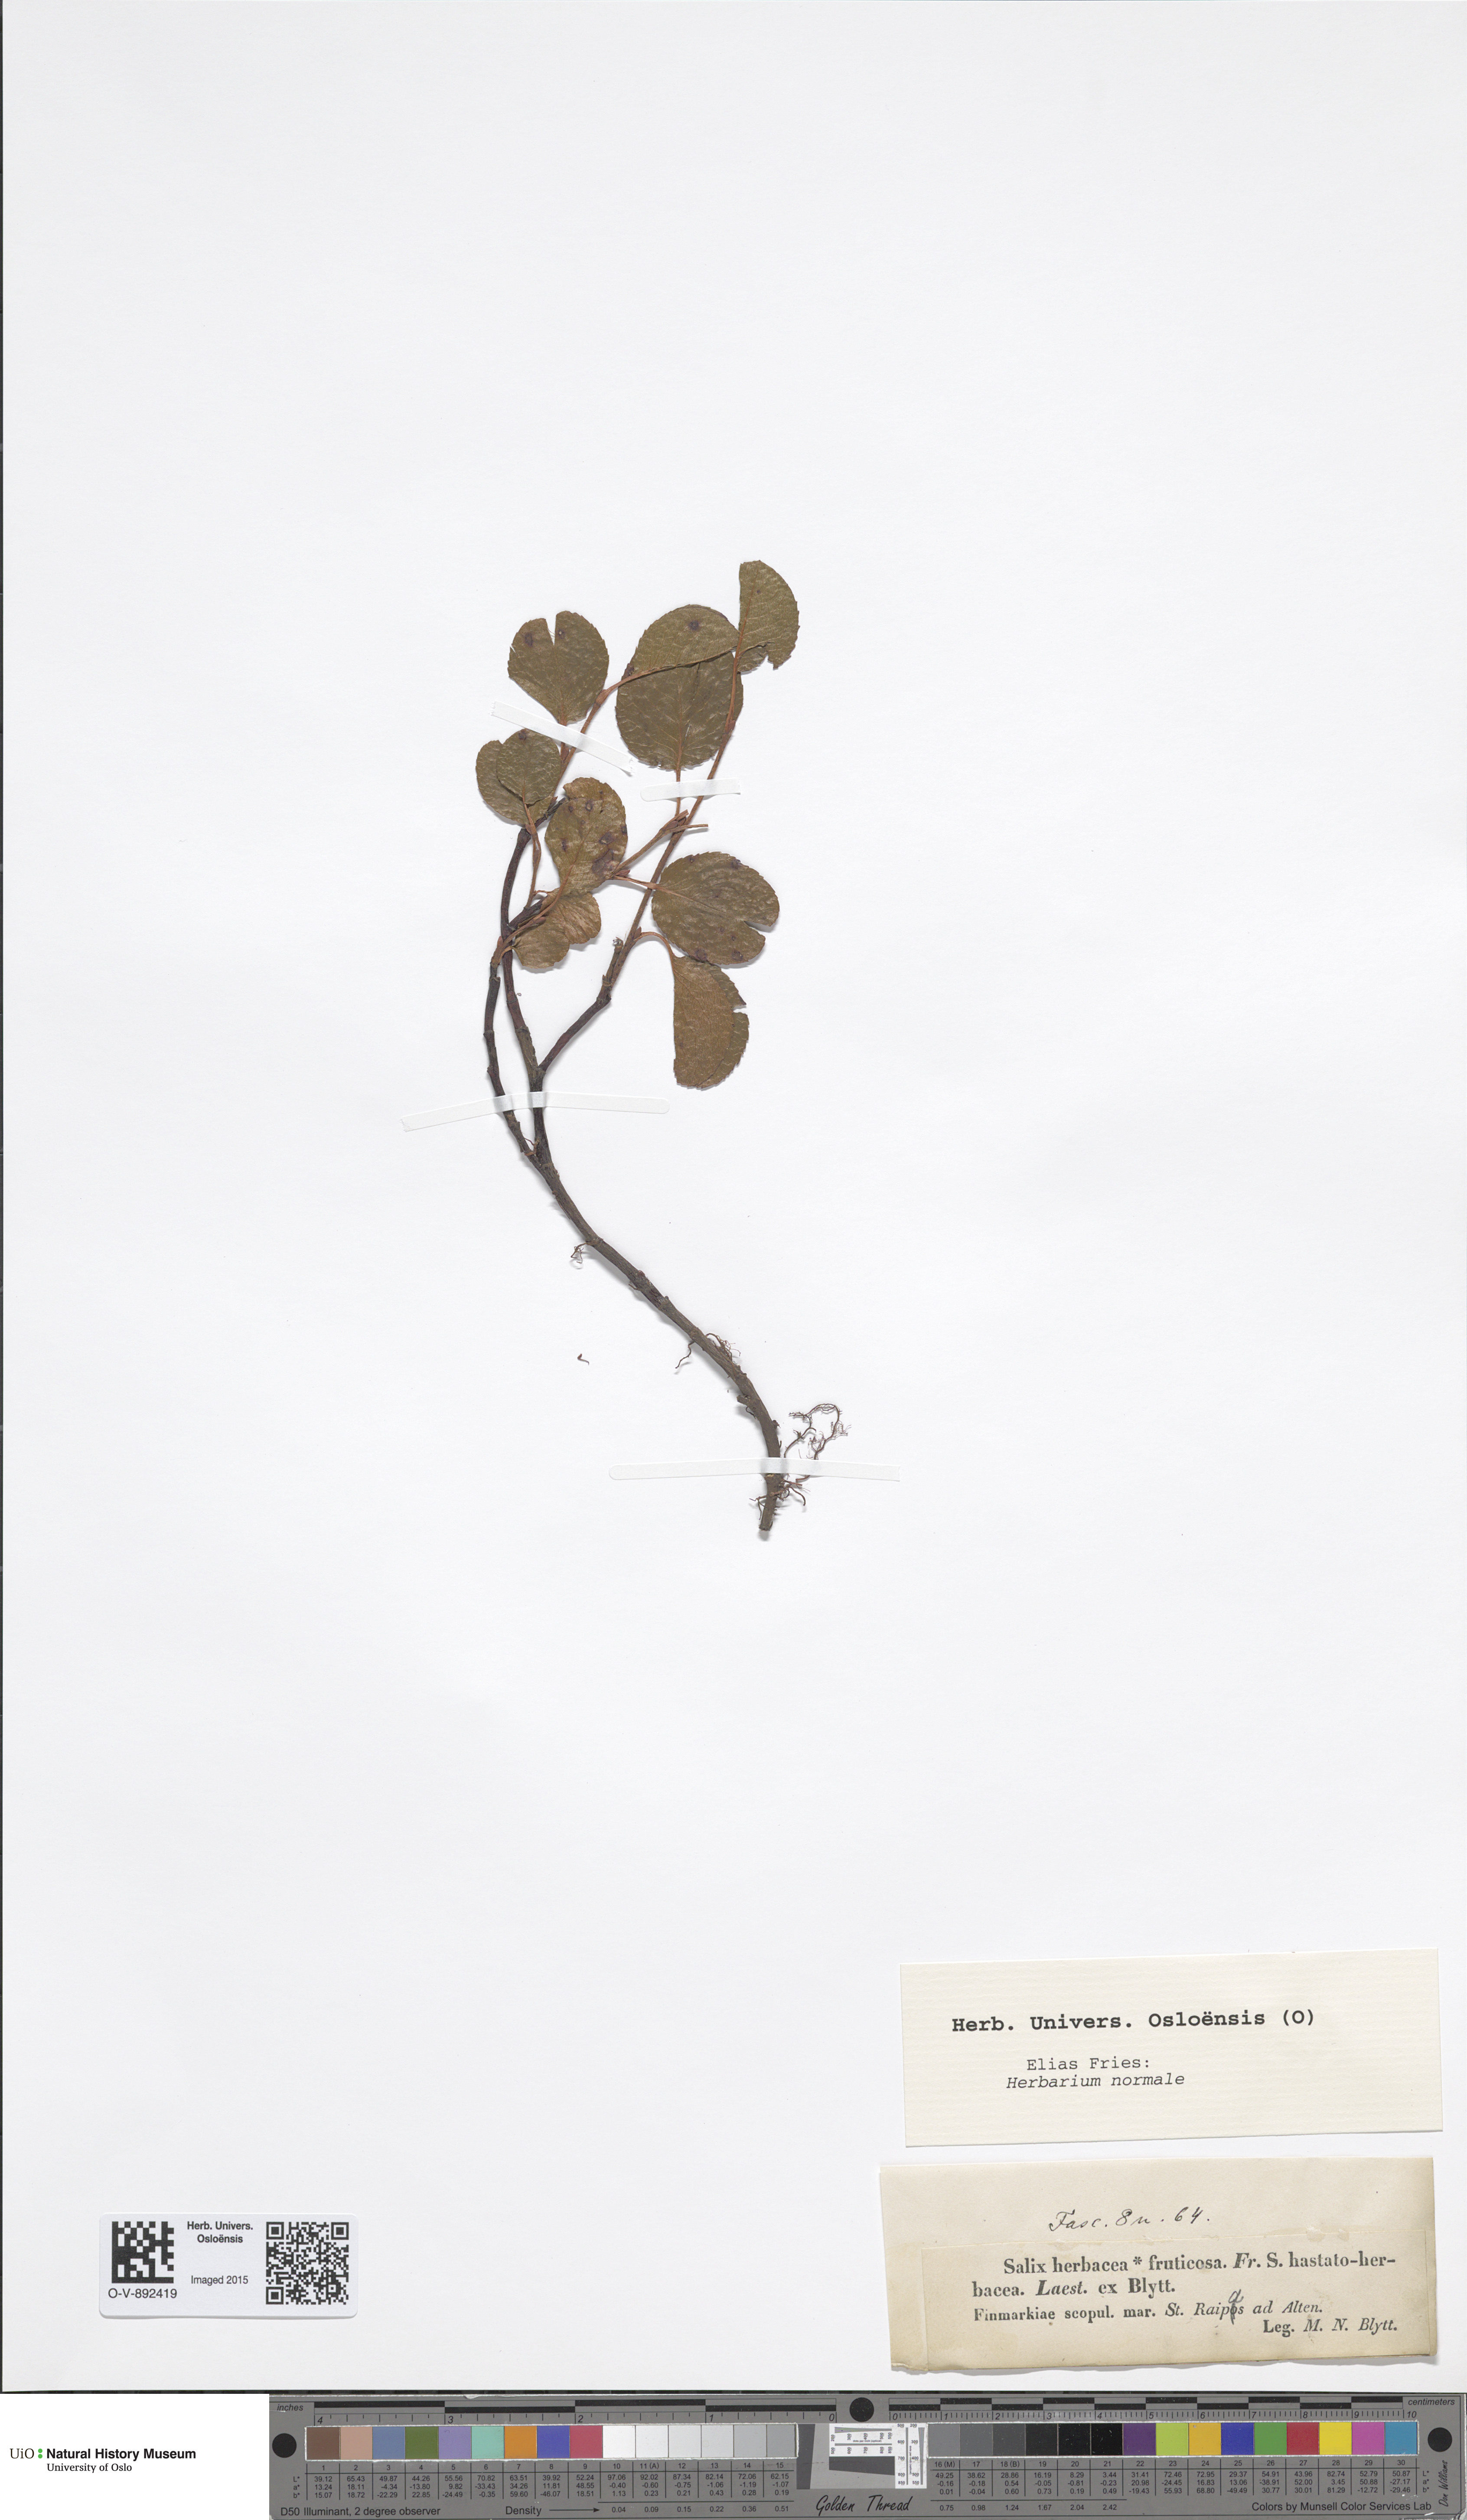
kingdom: Plantae
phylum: Tracheophyta
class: Magnoliopsida
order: Malpighiales
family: Salicaceae
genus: Salix
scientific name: Salix herbacea
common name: Dwarf willow
